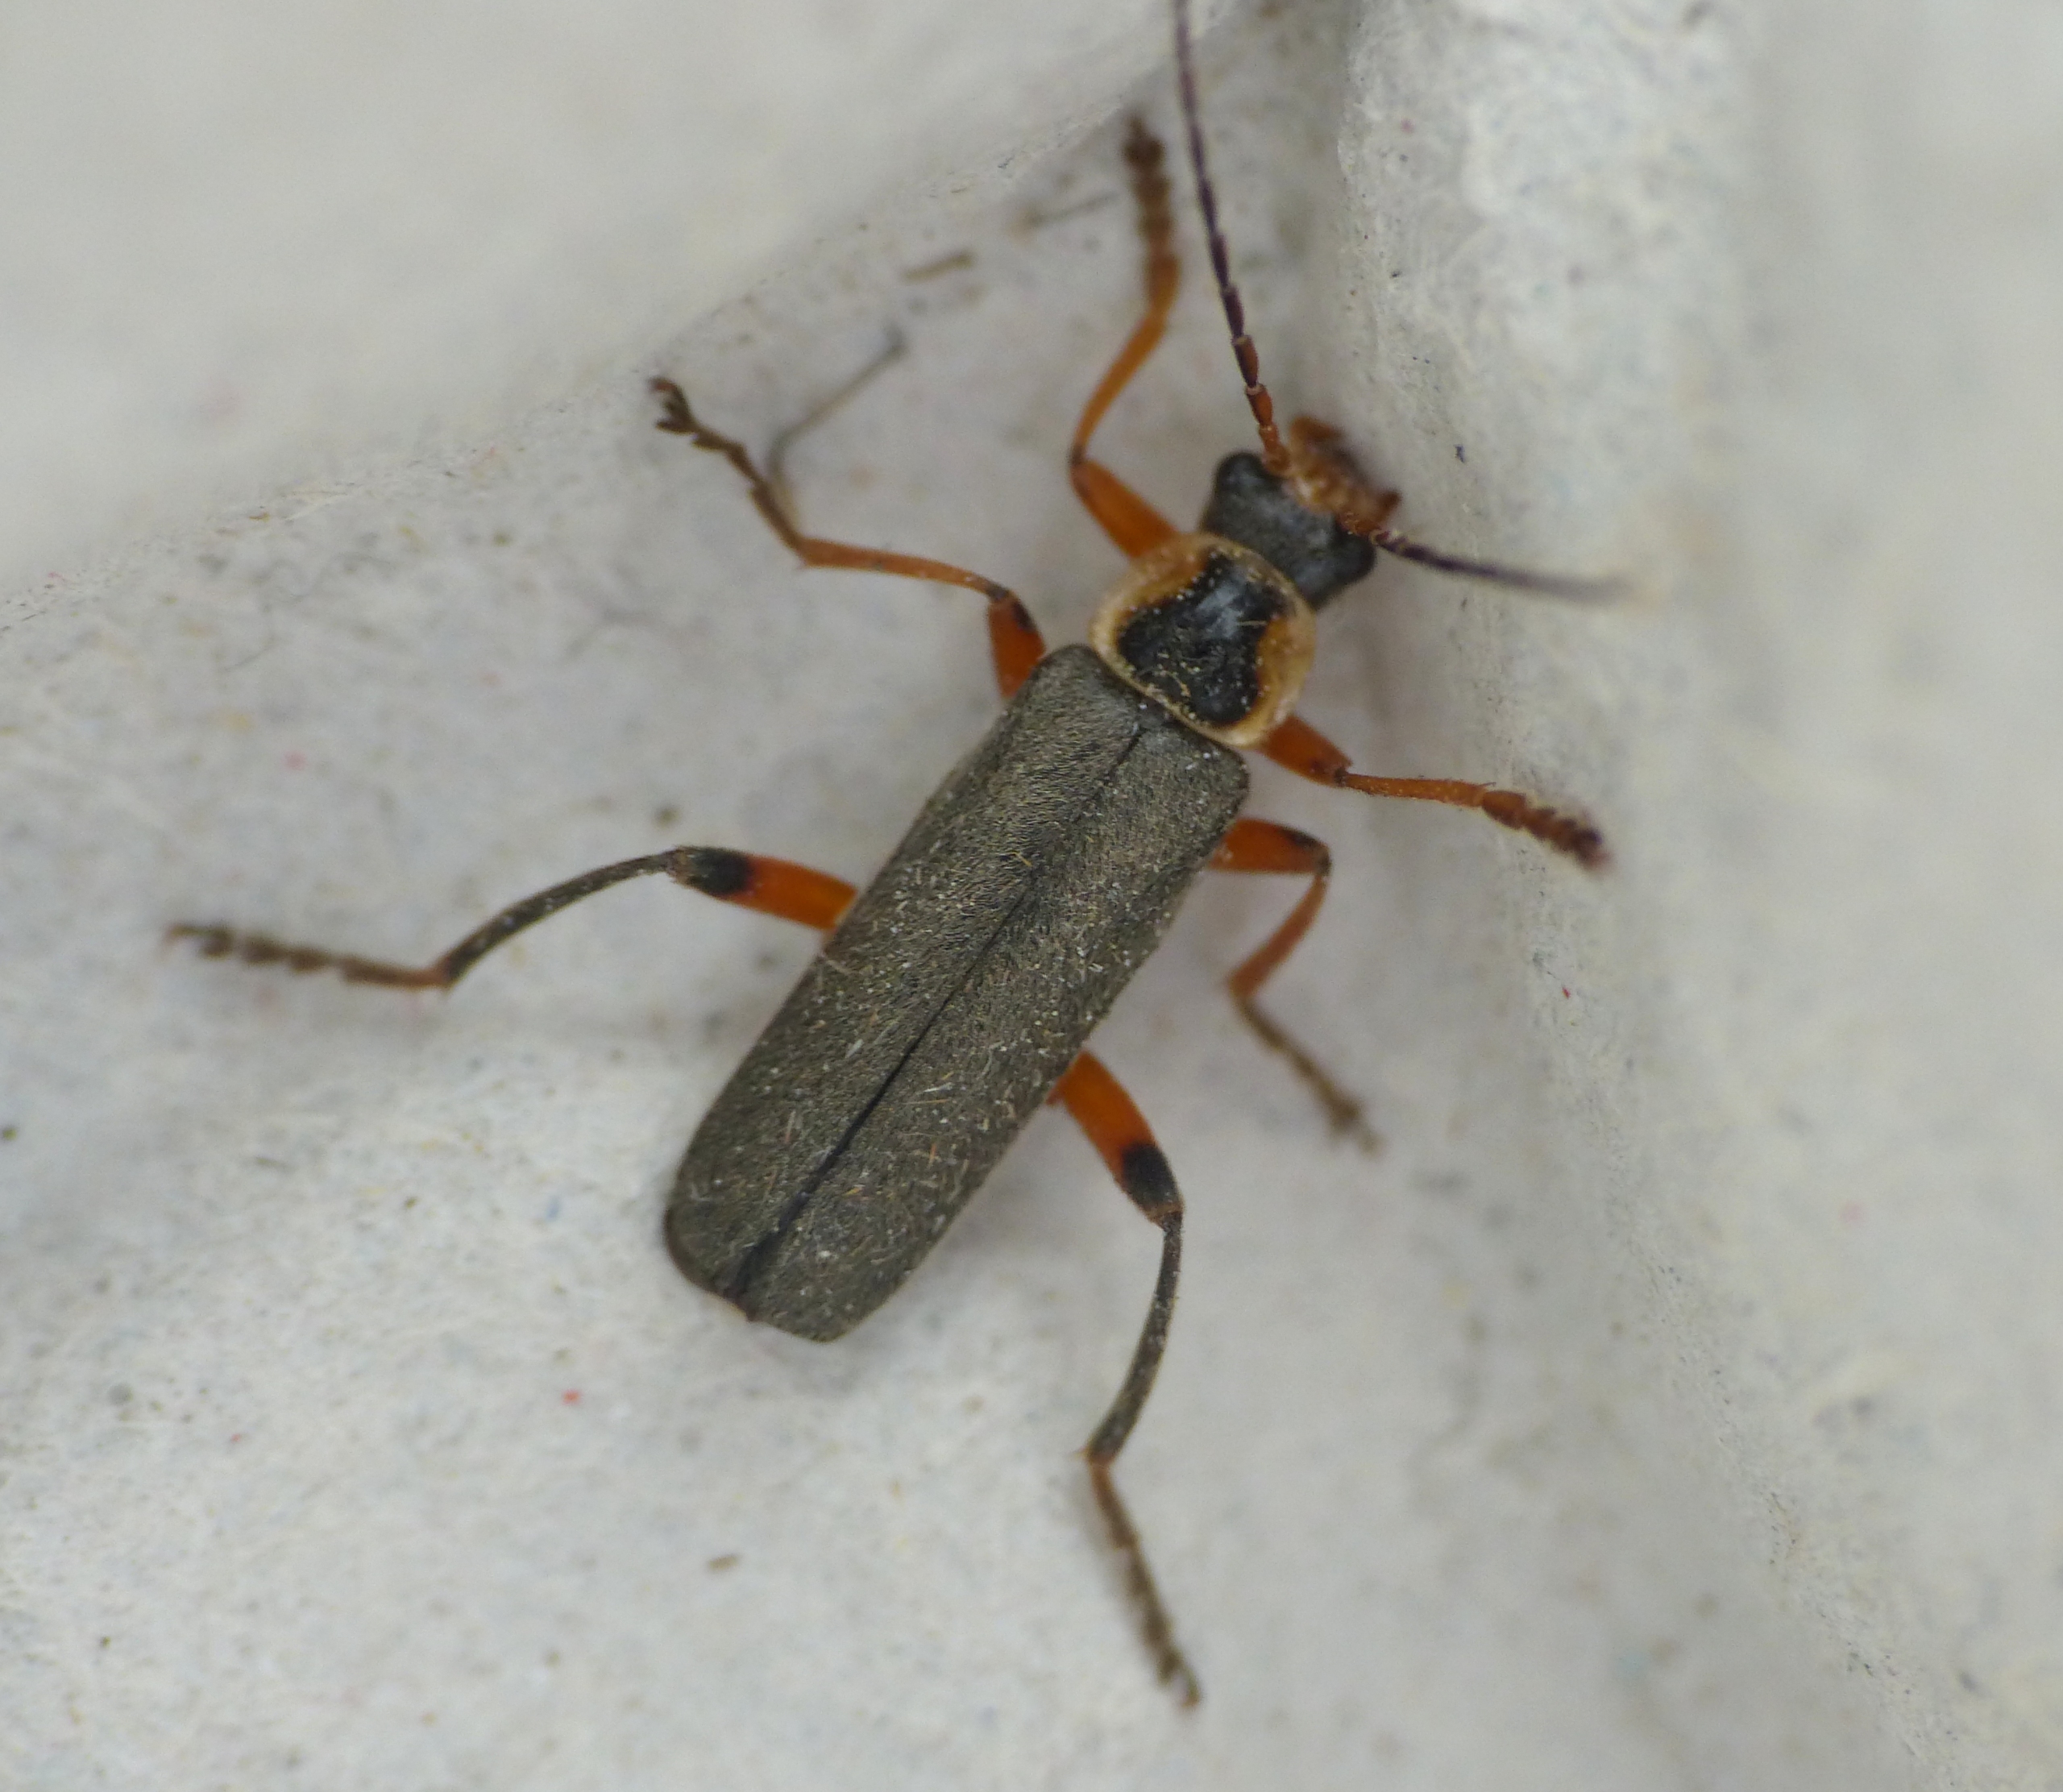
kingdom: Animalia
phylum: Arthropoda
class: Insecta
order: Coleoptera
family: Cantharidae
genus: Cantharis
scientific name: Cantharis nigricans
